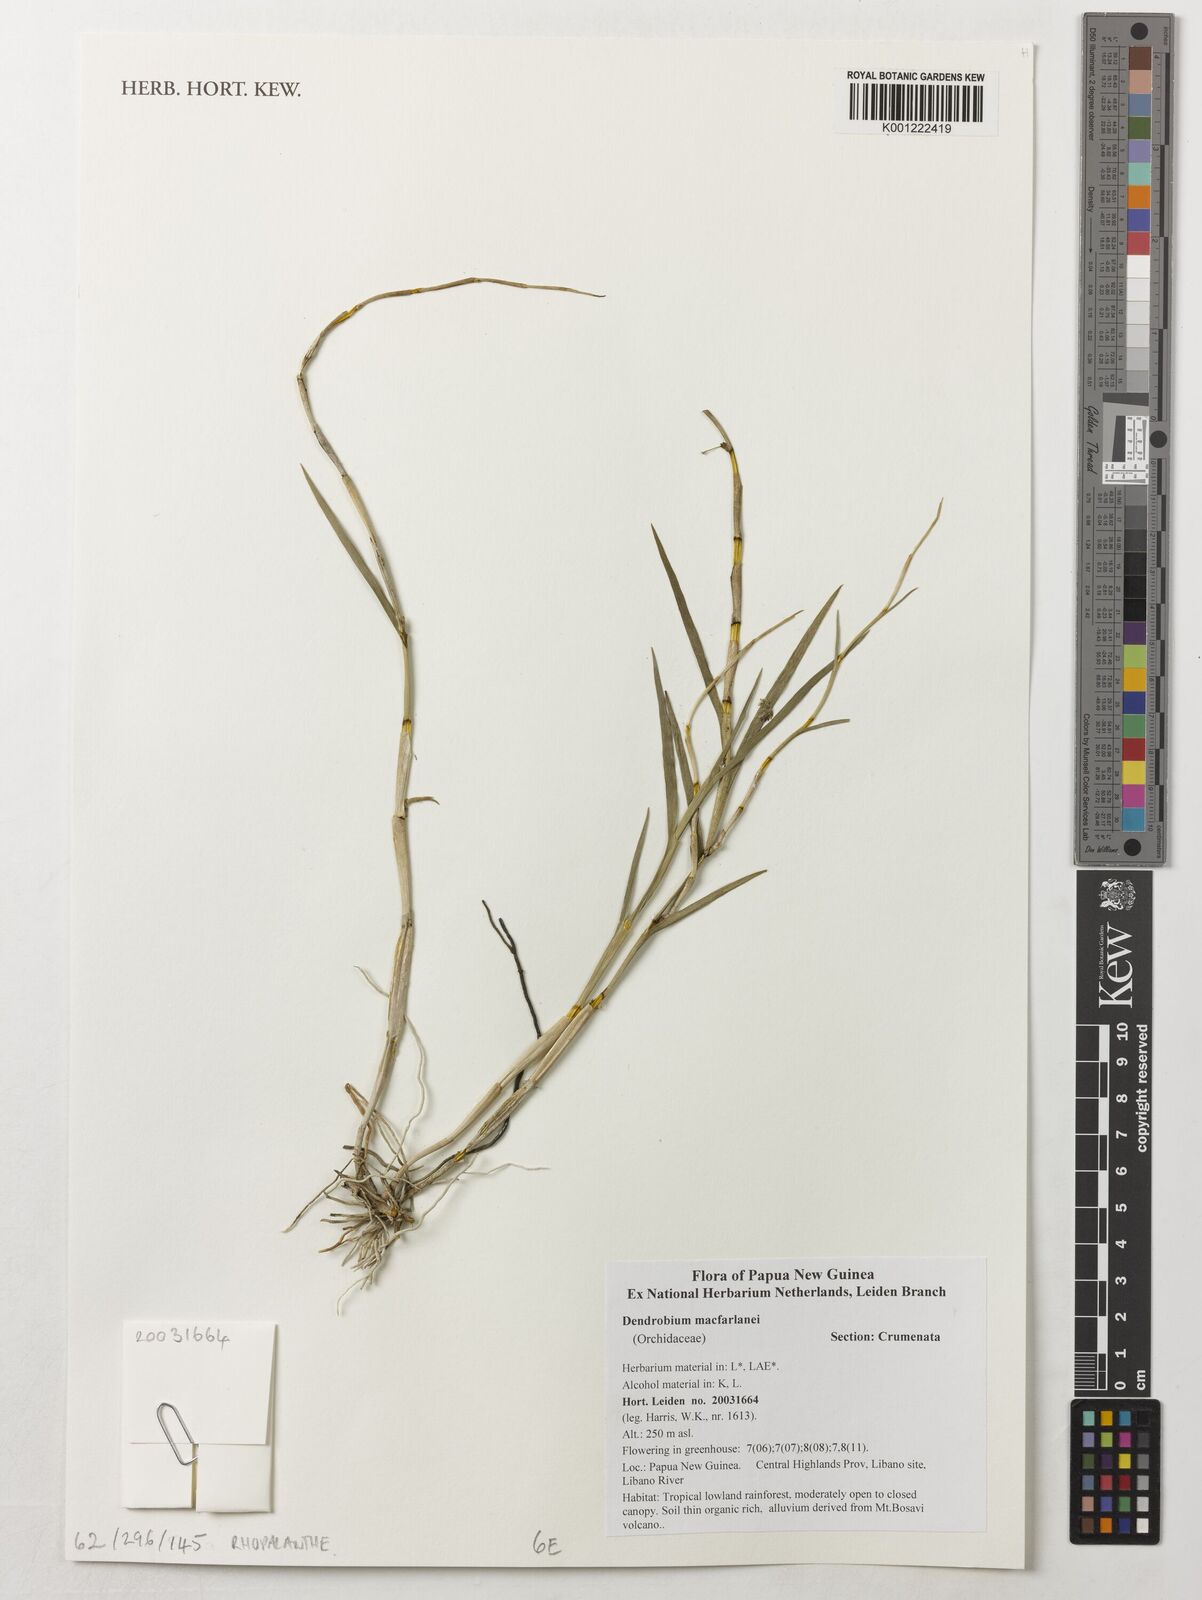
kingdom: Plantae
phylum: Tracheophyta
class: Liliopsida
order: Asparagales
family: Orchidaceae
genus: Dendrobium
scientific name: Dendrobium
